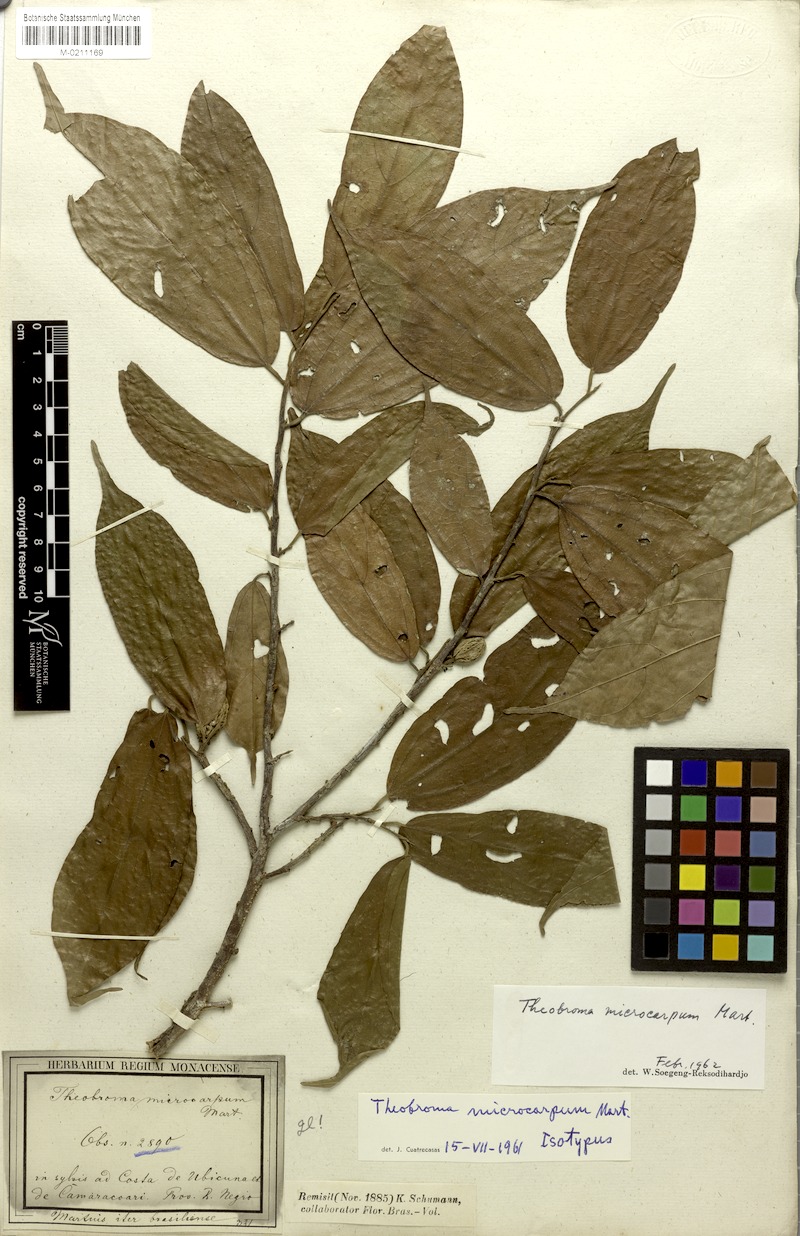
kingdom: Plantae
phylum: Tracheophyta
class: Magnoliopsida
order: Malvales
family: Malvaceae
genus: Theobroma
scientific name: Theobroma microcarpum
